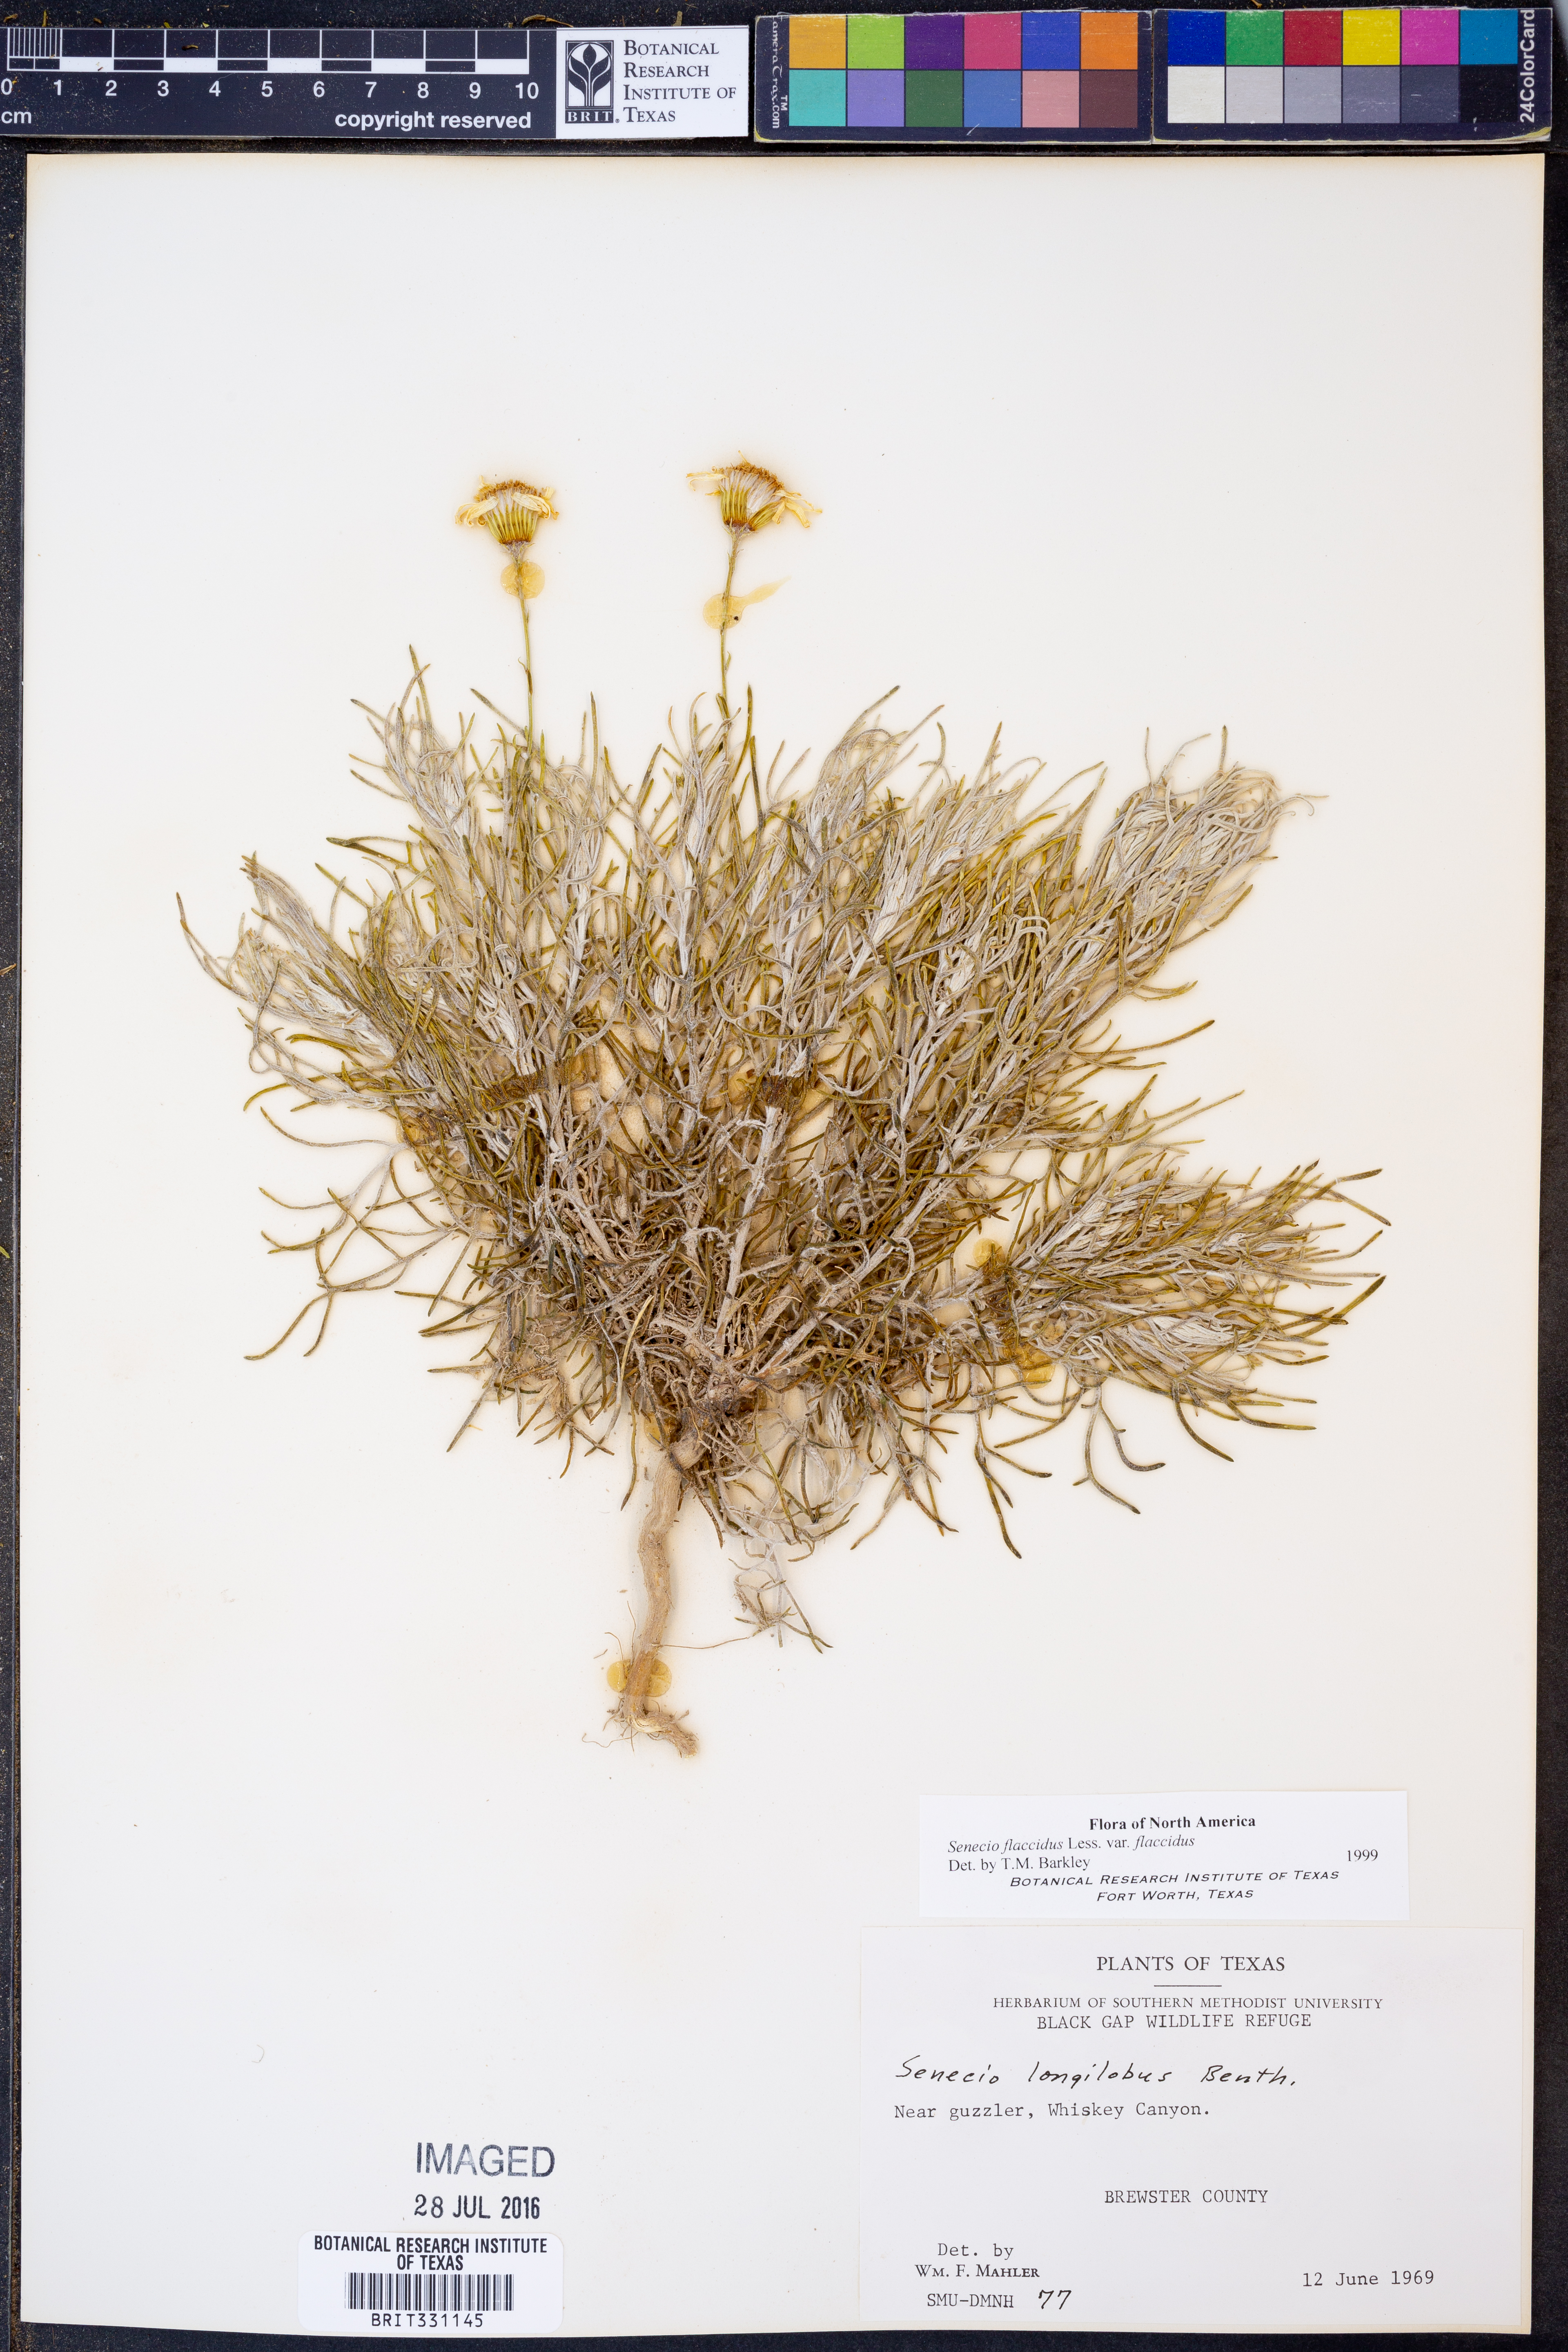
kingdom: Plantae
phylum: Tracheophyta
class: Magnoliopsida
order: Asterales
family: Asteraceae
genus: Senecio
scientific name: Senecio flaccidus
